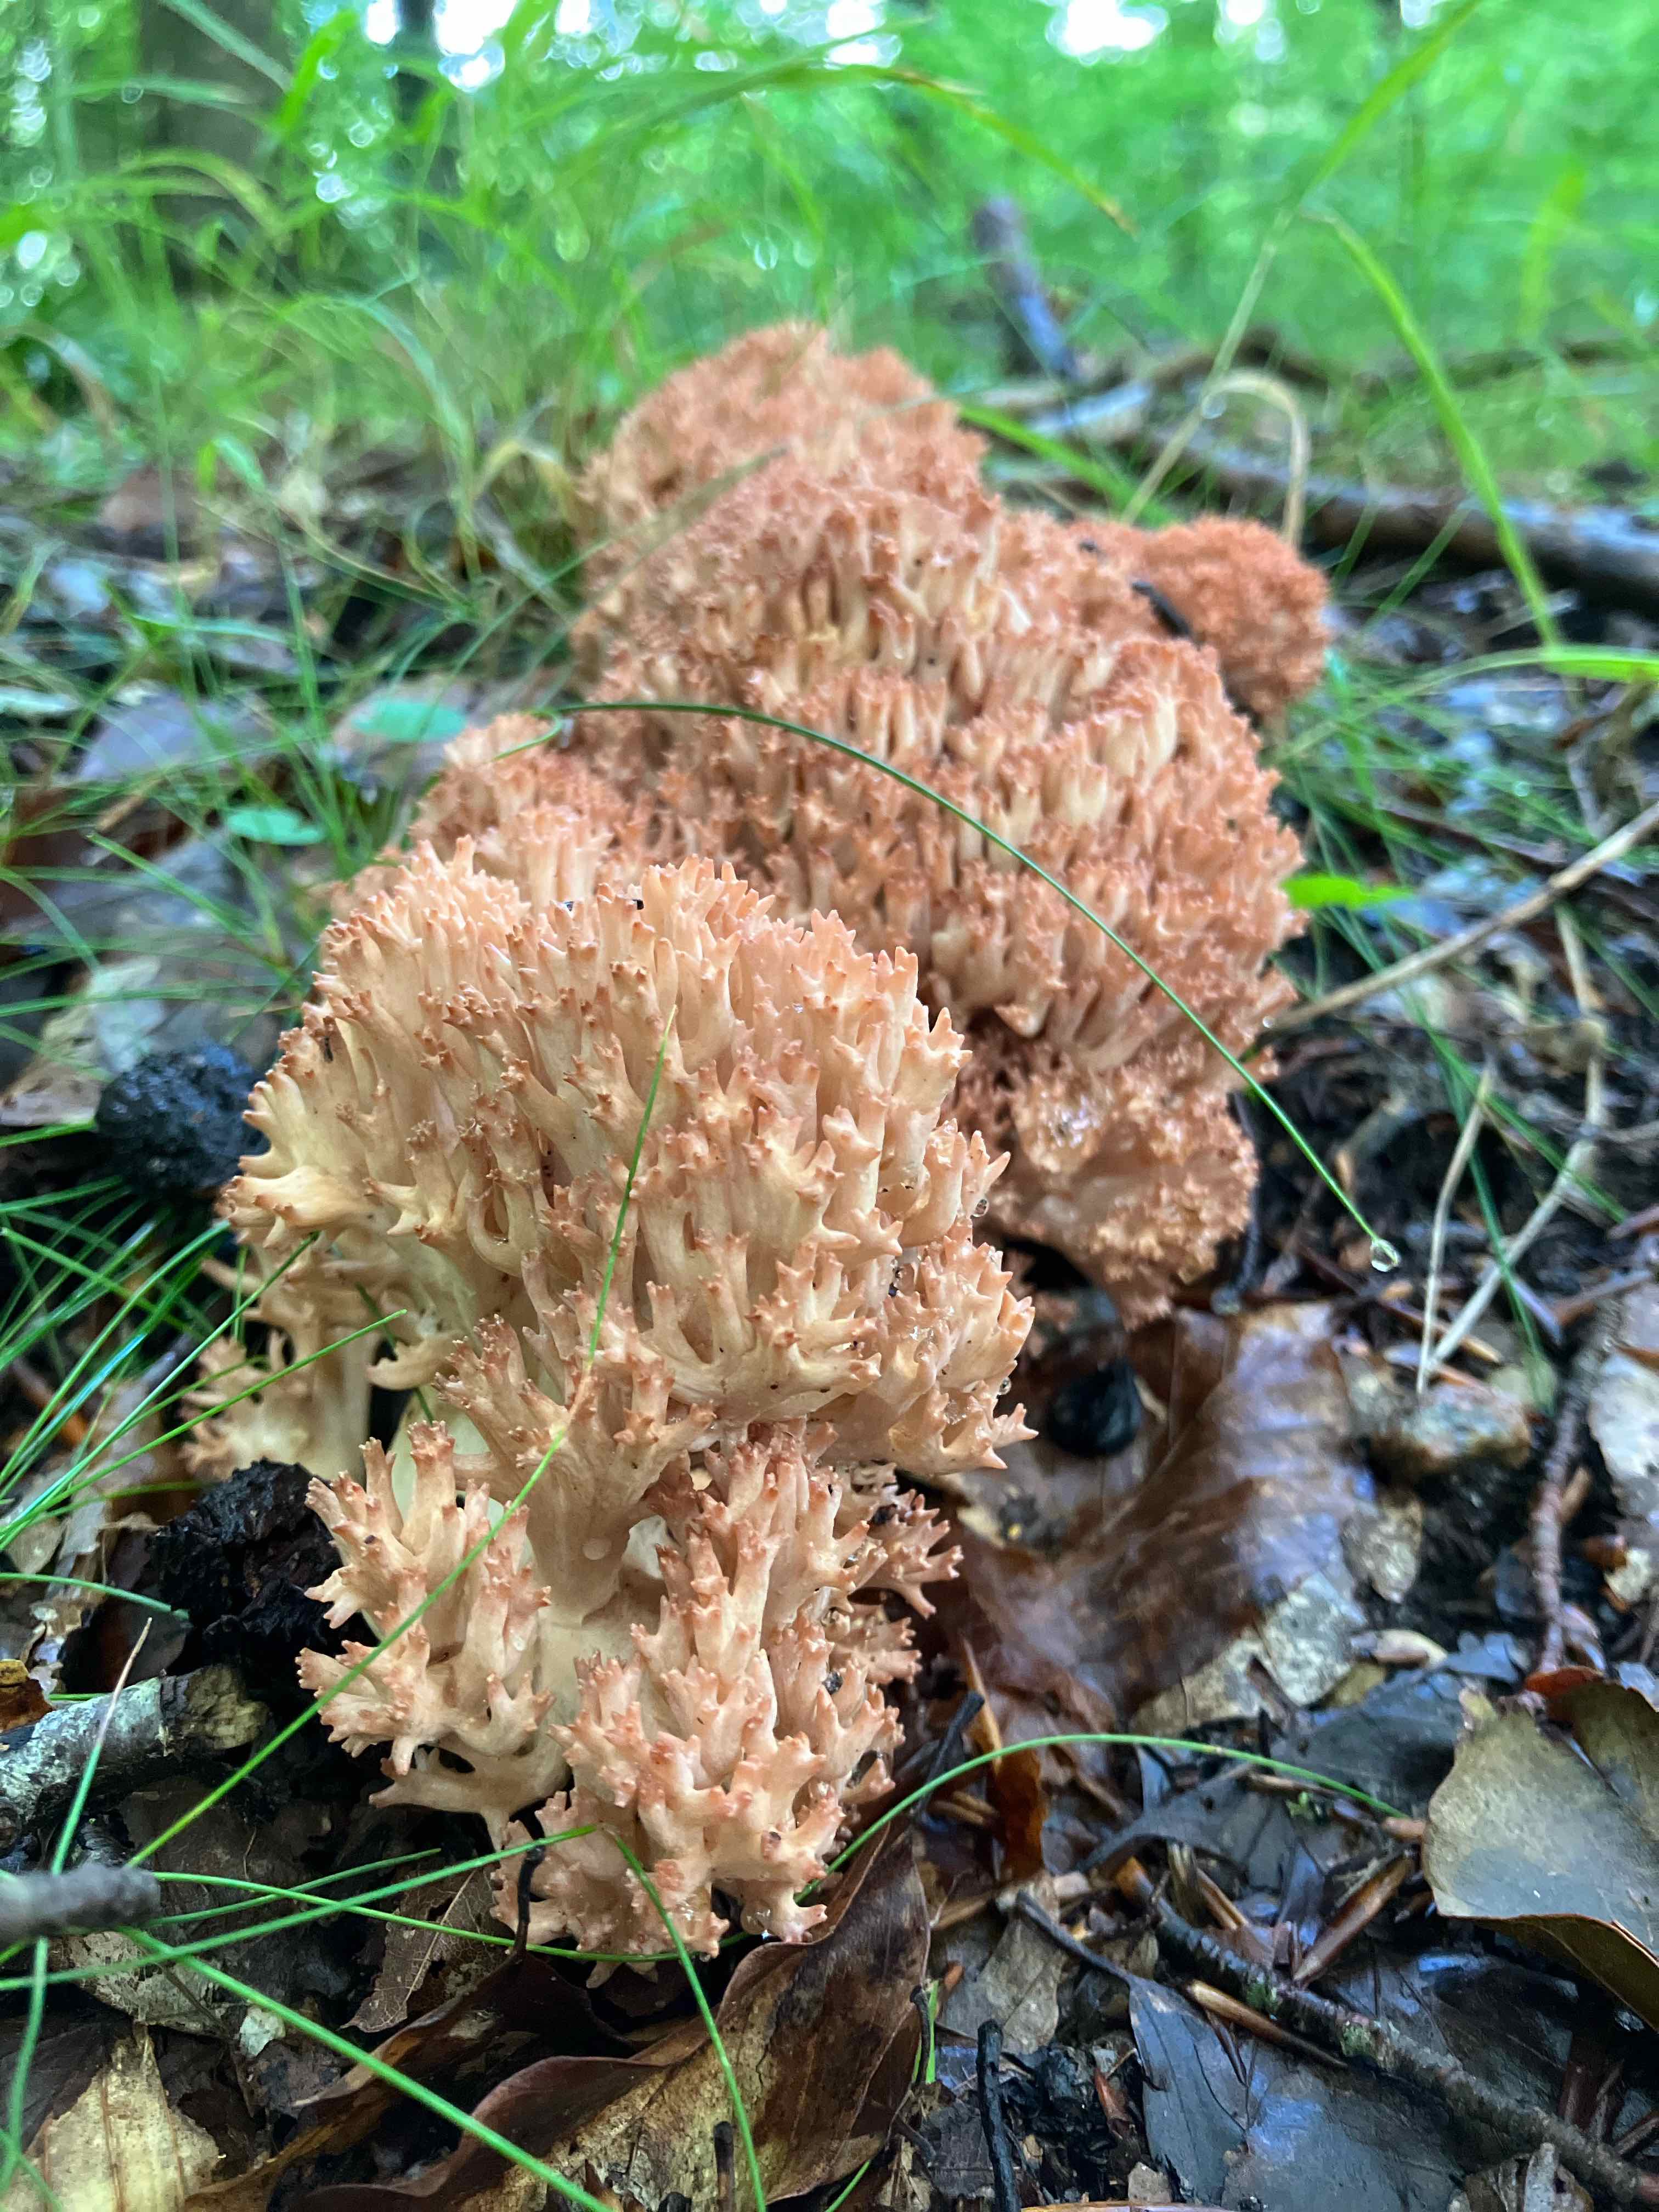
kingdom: Fungi
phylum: Basidiomycota
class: Agaricomycetes
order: Gomphales
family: Gomphaceae
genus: Ramaria
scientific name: Ramaria botrytis
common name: drue-koralsvamp
